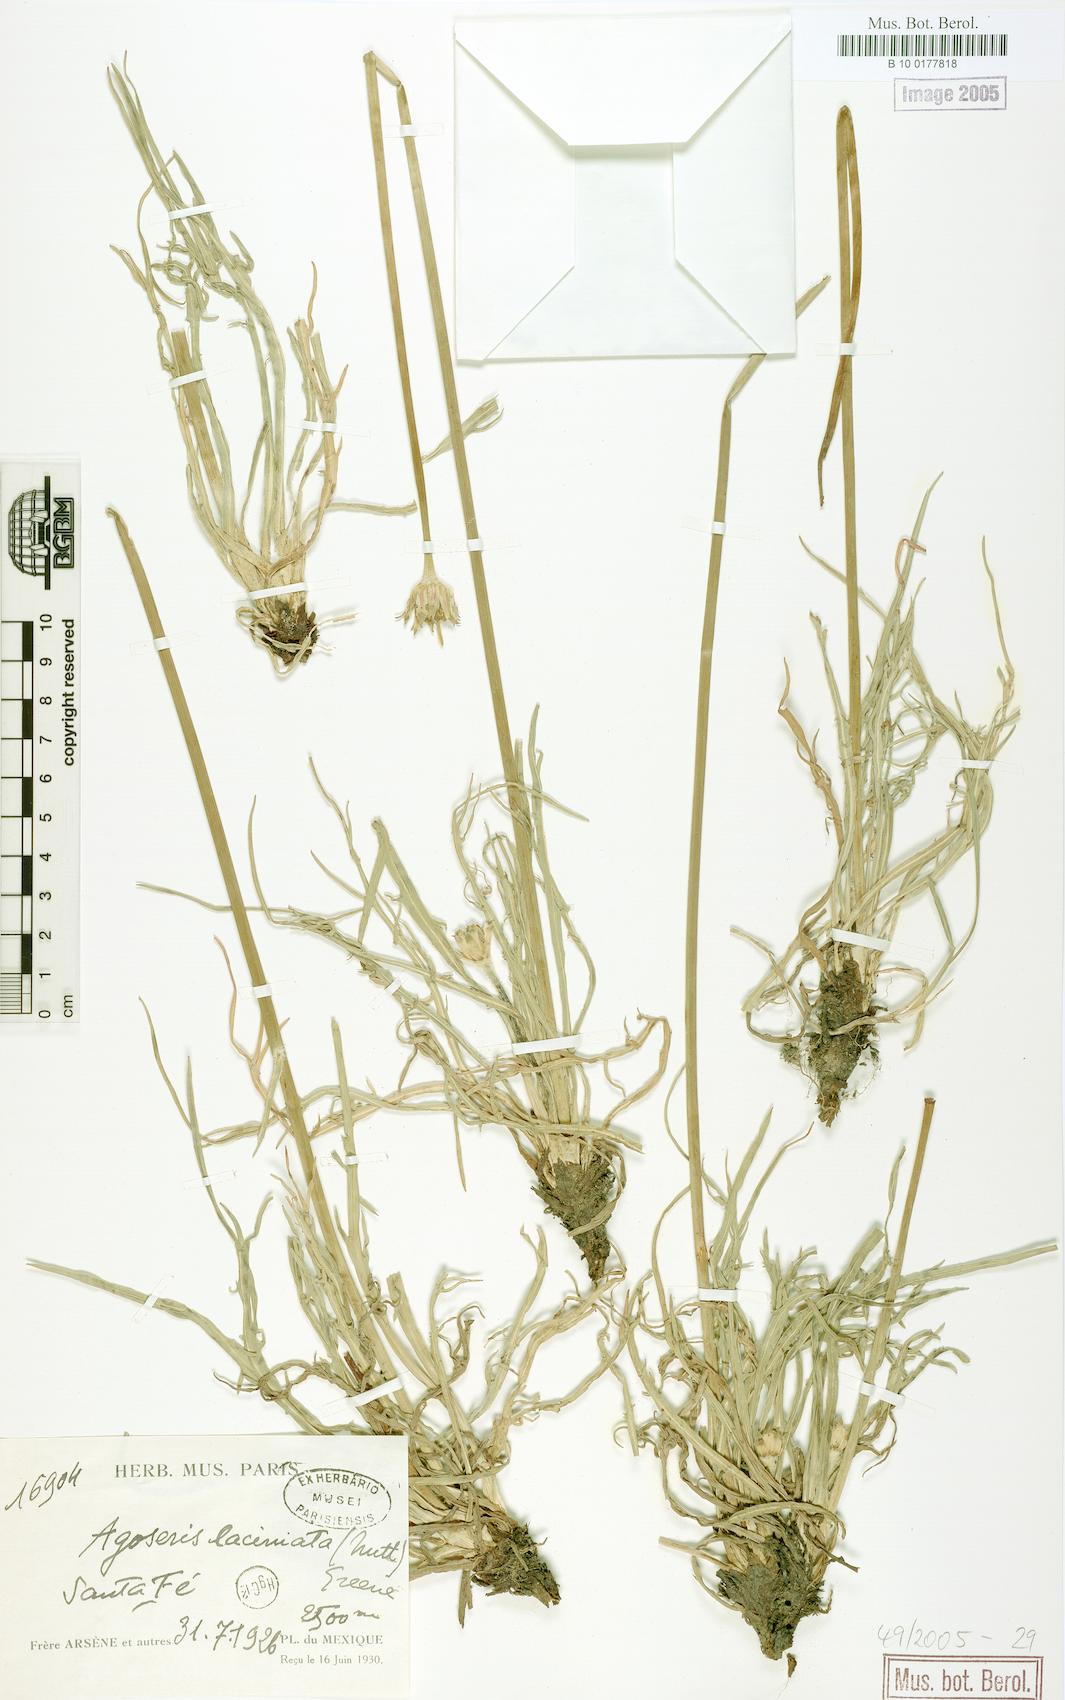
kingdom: Plantae
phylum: Tracheophyta
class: Magnoliopsida
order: Asterales
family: Asteraceae
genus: Agoseris
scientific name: Agoseris elata
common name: Willamette agoseris
